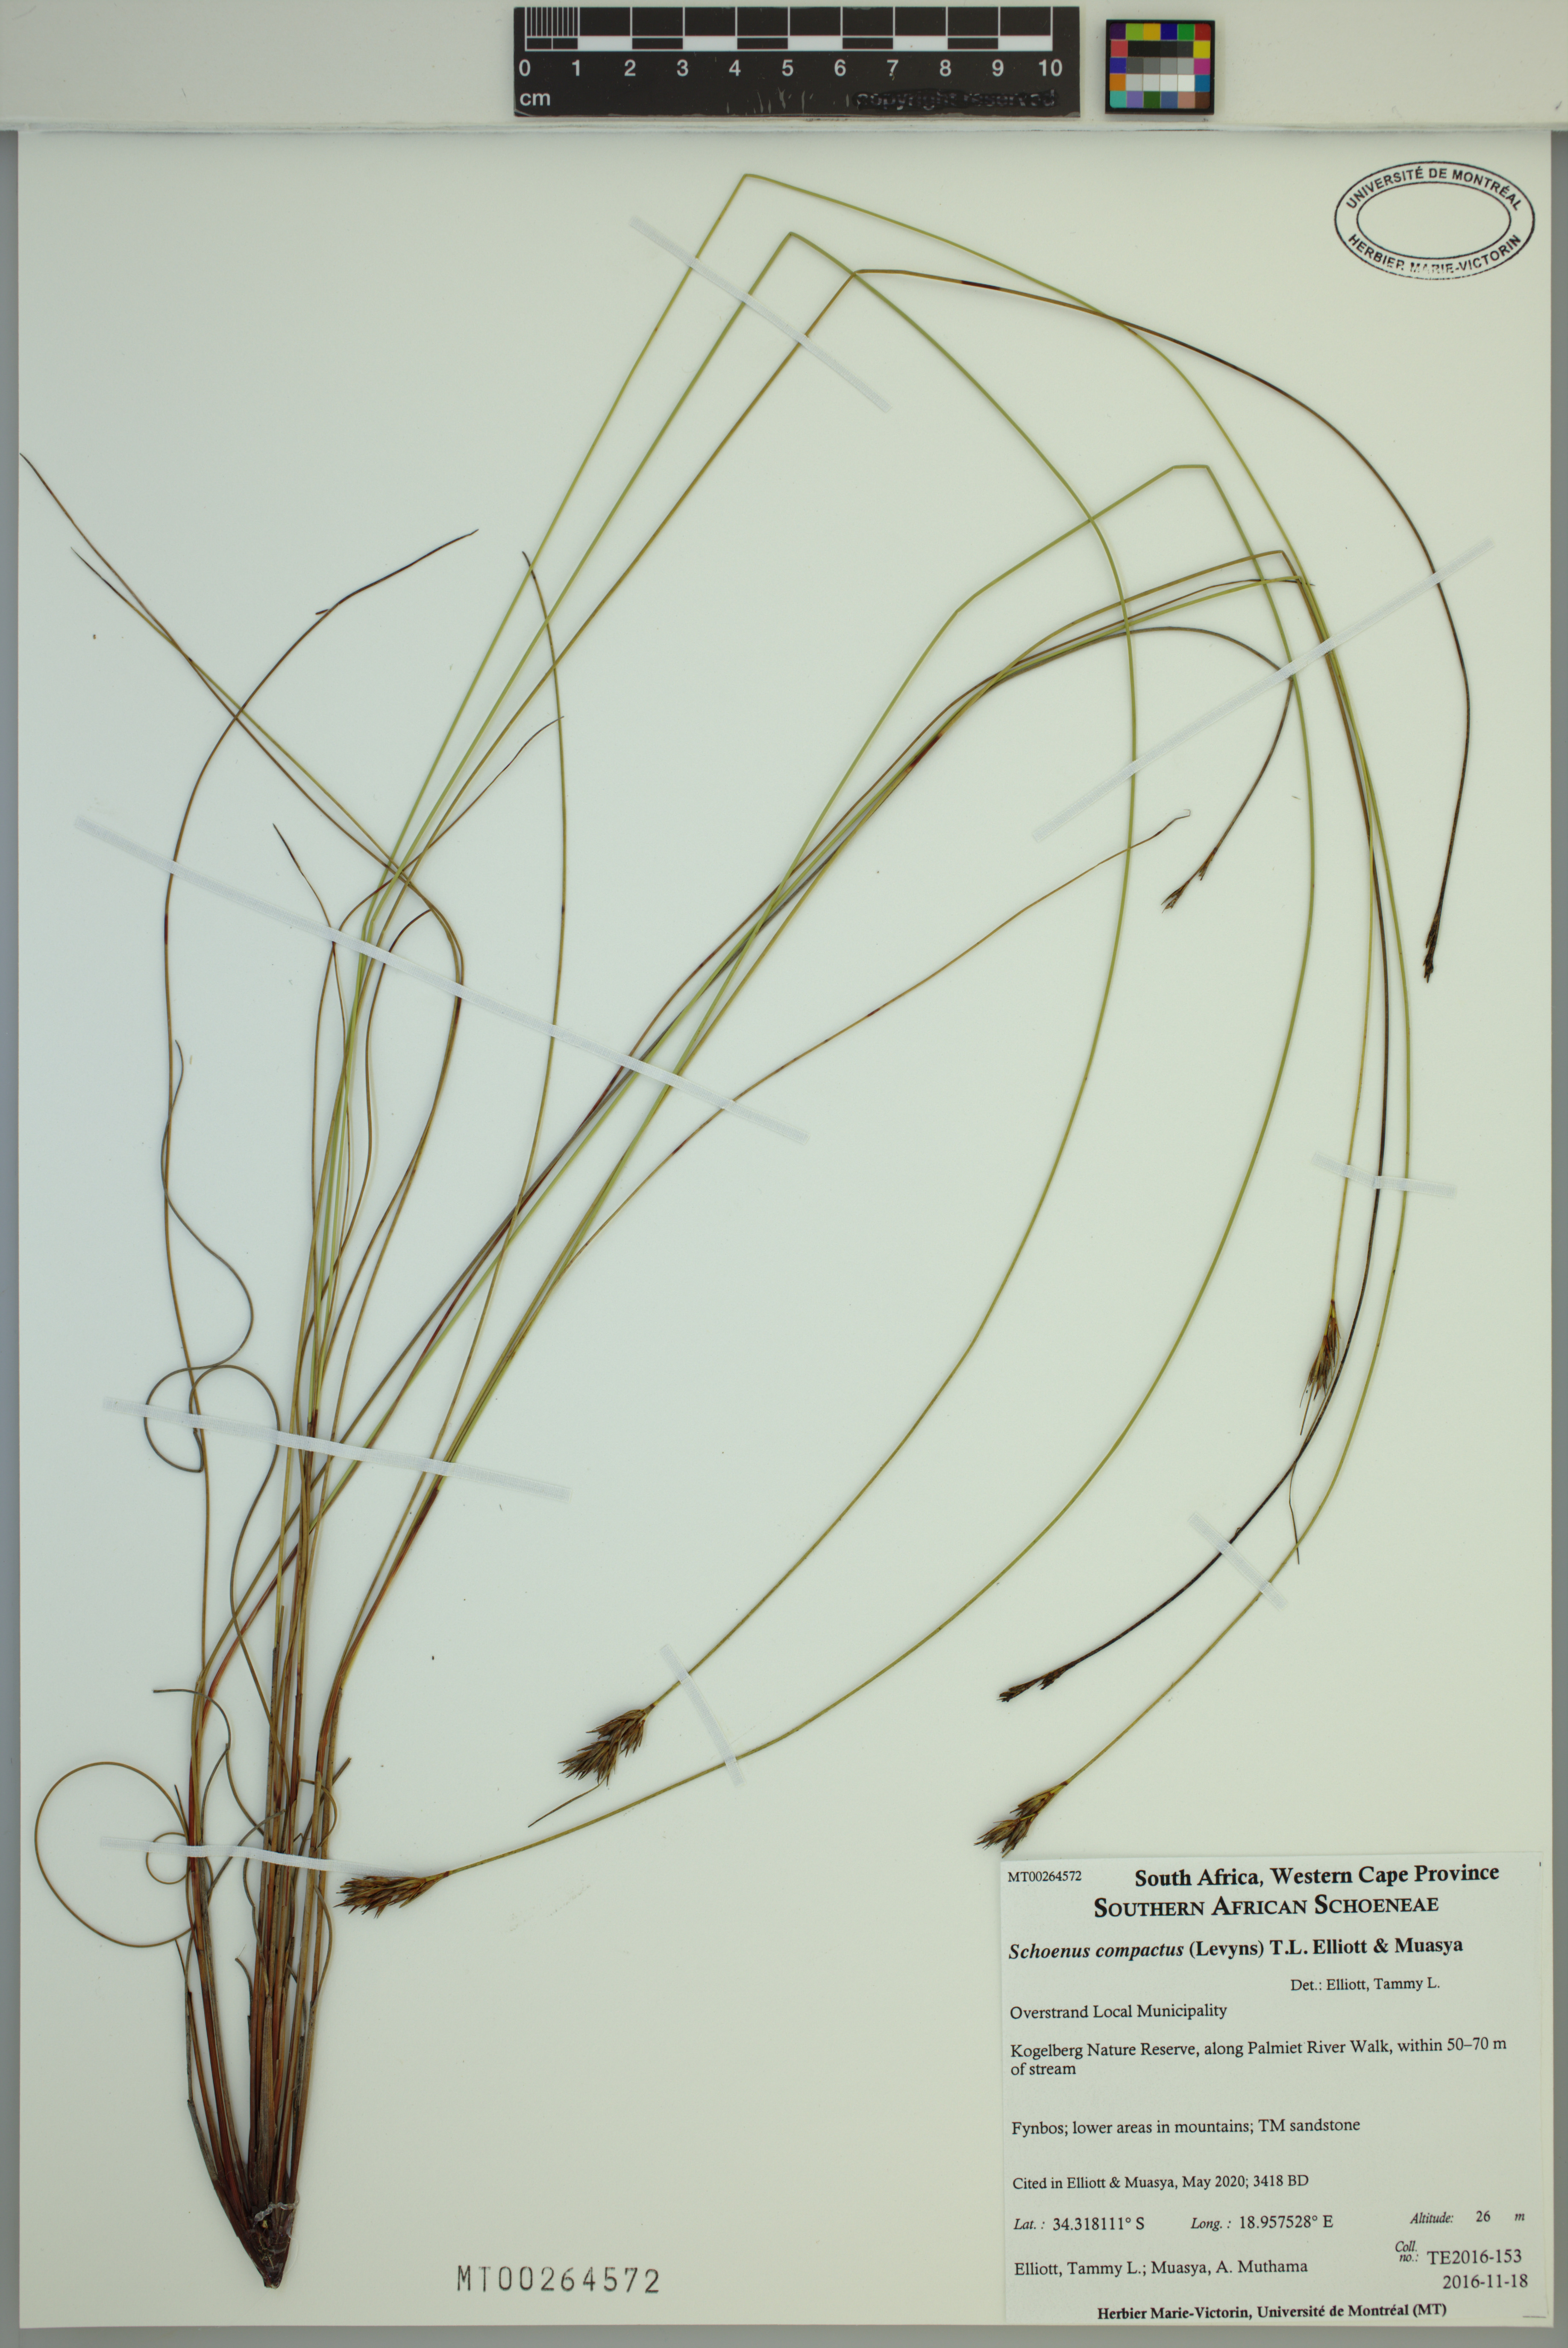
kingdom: Plantae
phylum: Tracheophyta
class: Liliopsida
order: Poales
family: Cyperaceae
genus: Schoenus
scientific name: Schoenus compactus
